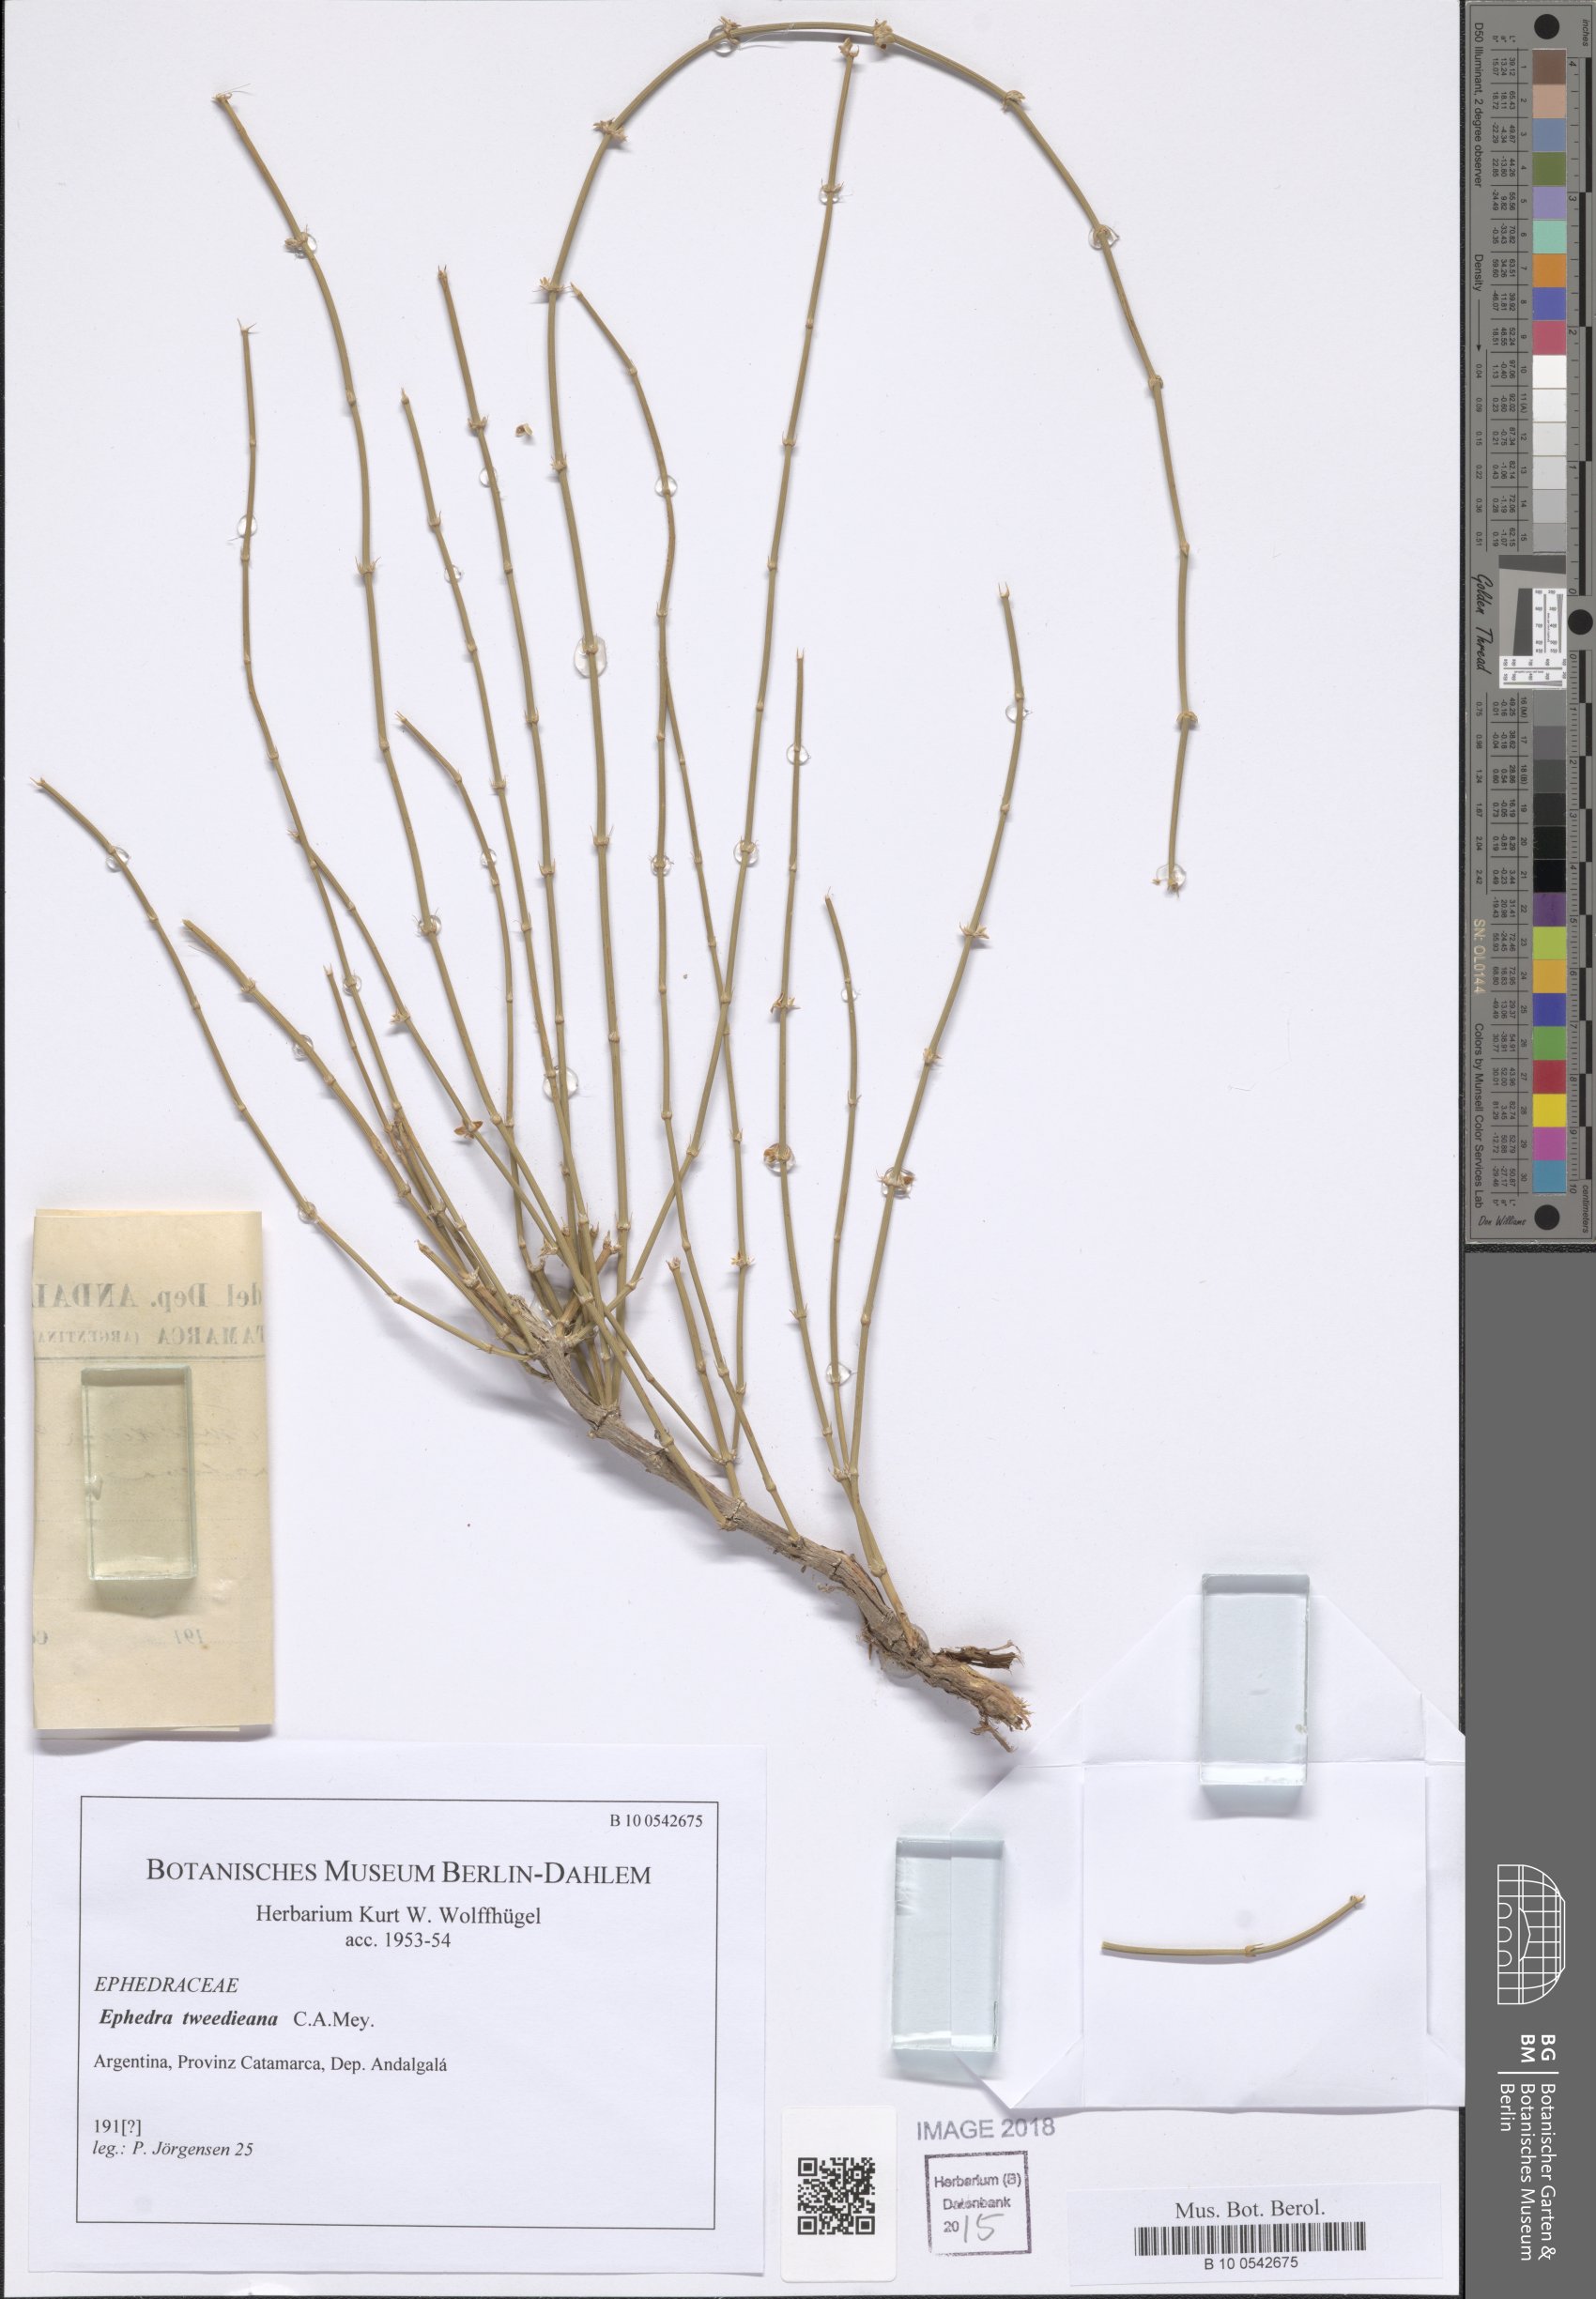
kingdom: Plantae
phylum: Tracheophyta
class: Gnetopsida
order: Ephedrales
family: Ephedraceae
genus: Ephedra
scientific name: Ephedra tweedieana
